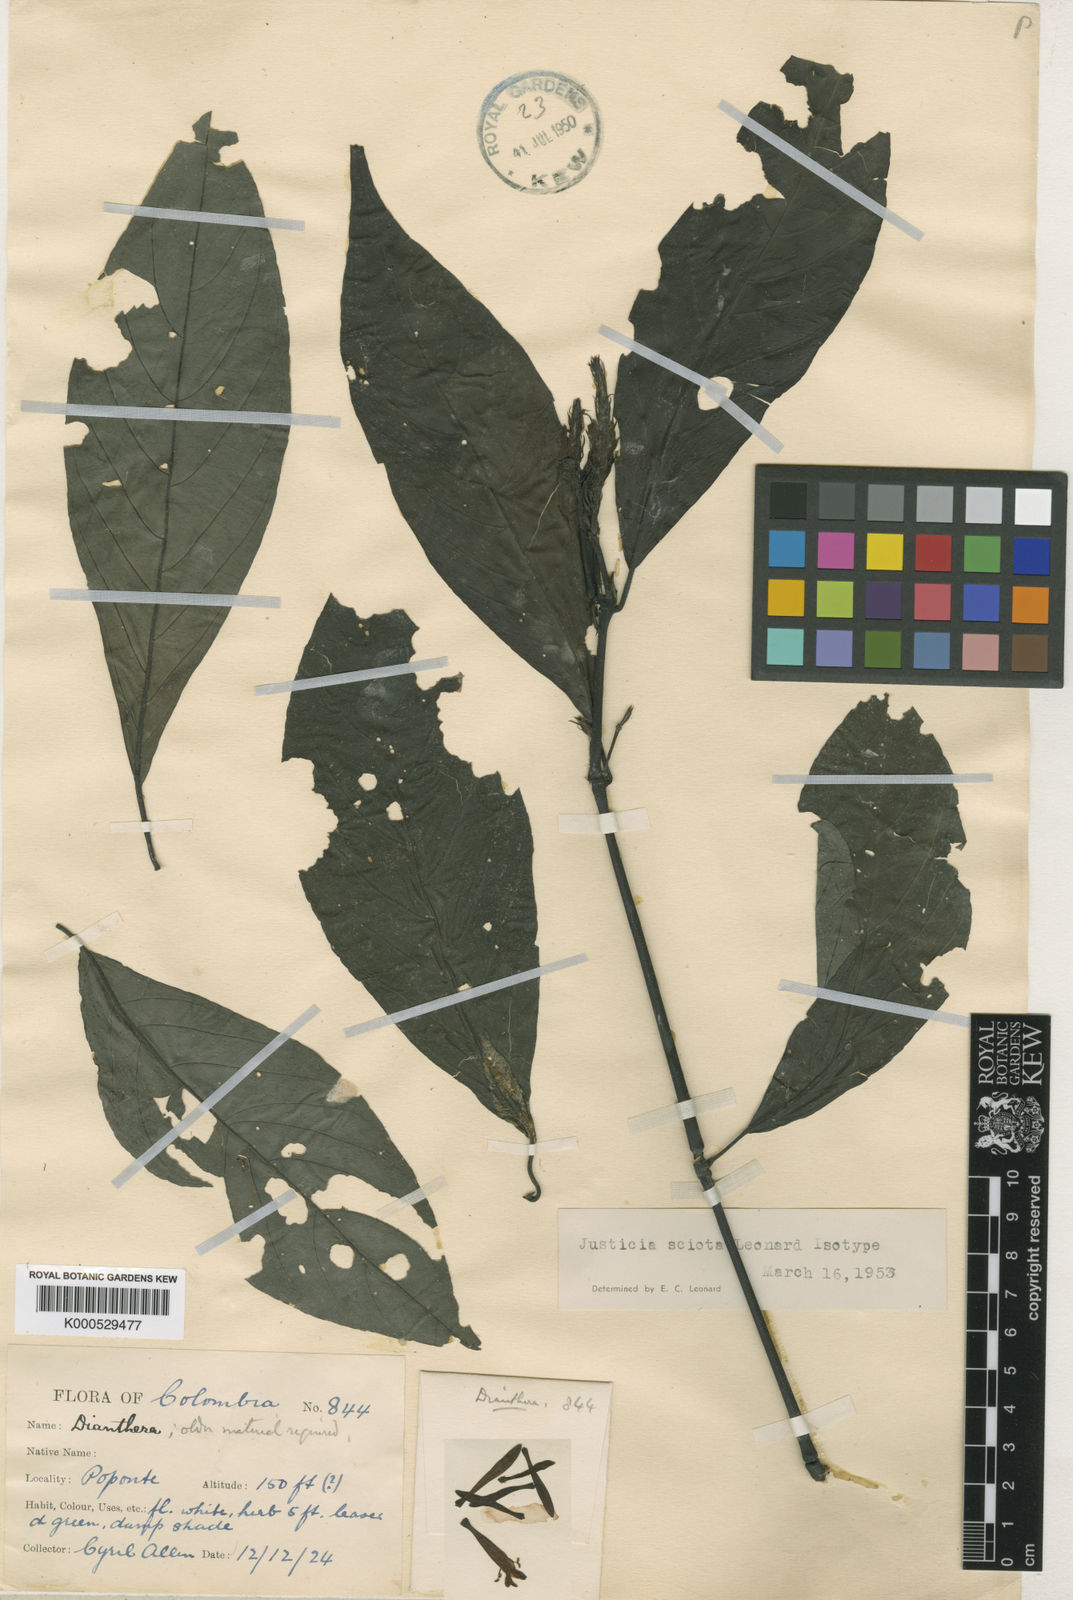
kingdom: Plantae
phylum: Tracheophyta
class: Magnoliopsida
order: Lamiales
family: Acanthaceae
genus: Justicia
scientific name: Justicia sciota
